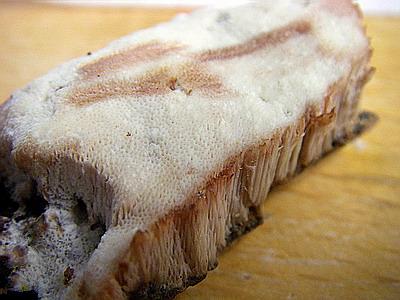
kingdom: Fungi
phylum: Basidiomycota
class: Agaricomycetes
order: Polyporales
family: Meruliaceae
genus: Pappia
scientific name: Pappia fissilis
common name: rosa fedtporesvamp
